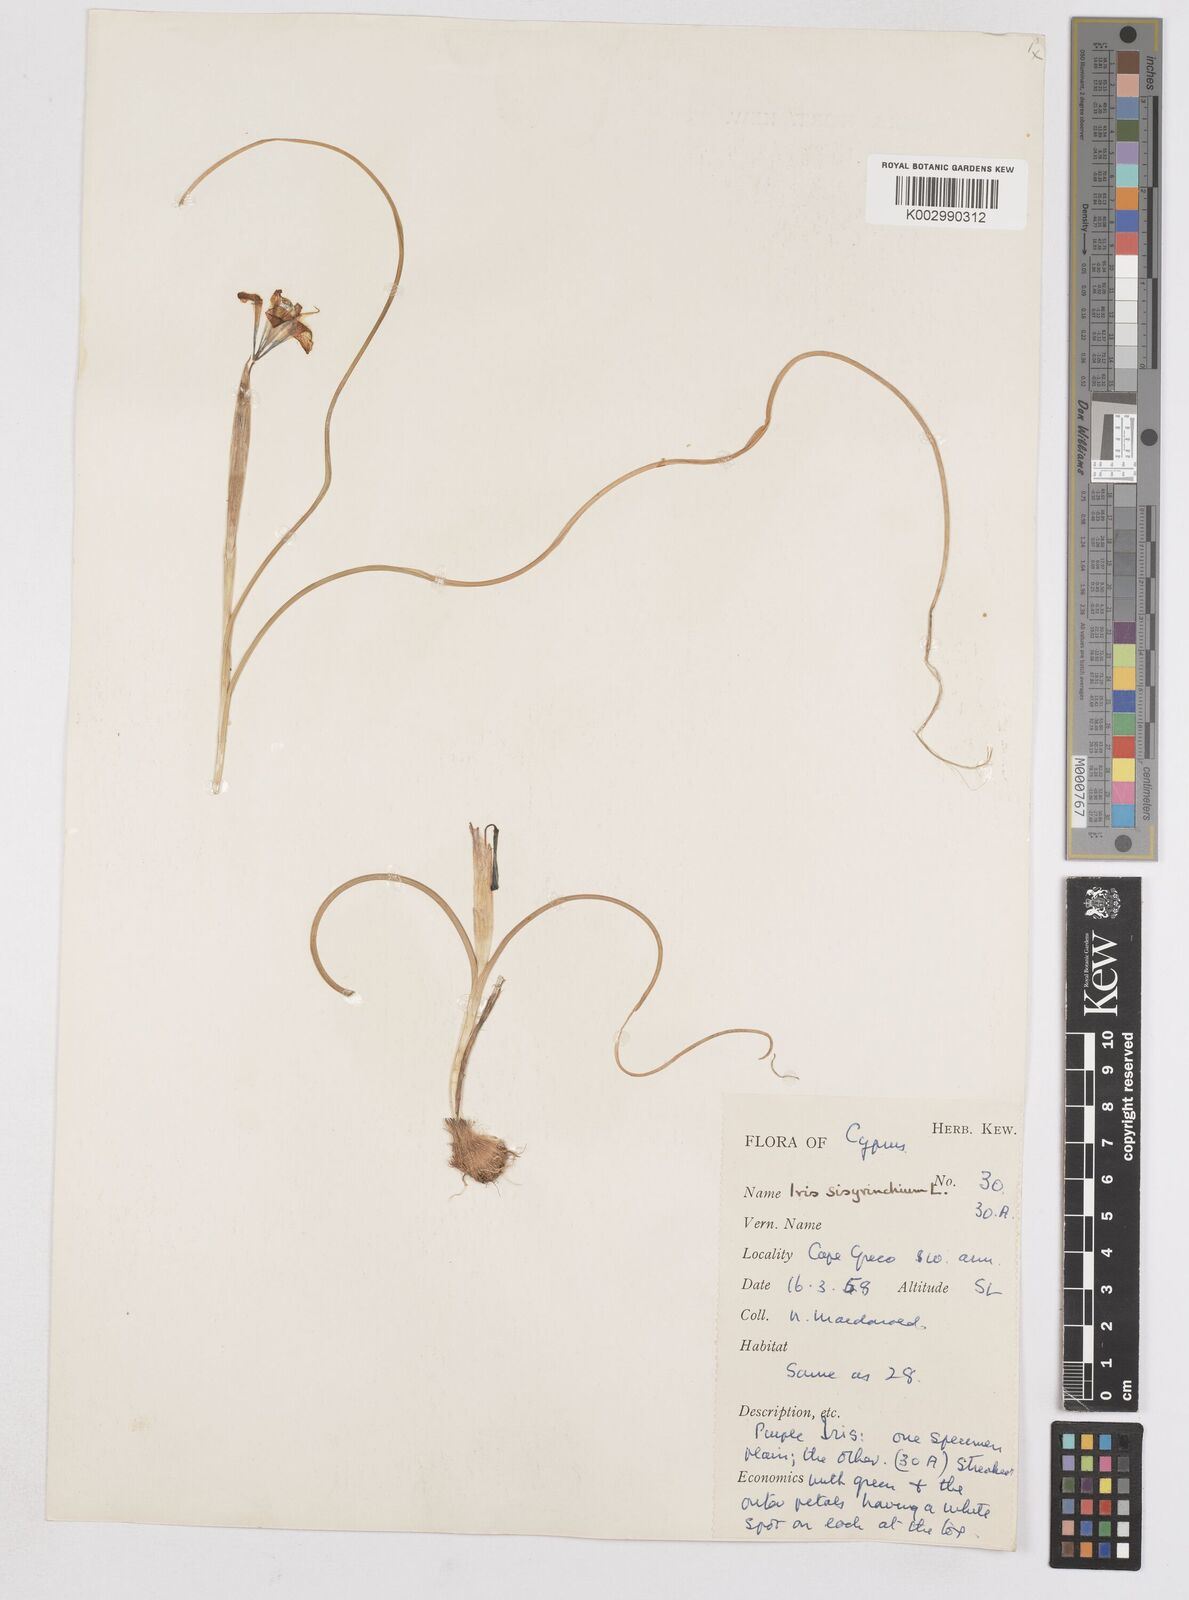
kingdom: Plantae
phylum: Tracheophyta
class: Liliopsida
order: Asparagales
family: Iridaceae
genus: Moraea
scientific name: Moraea sisyrinchium
